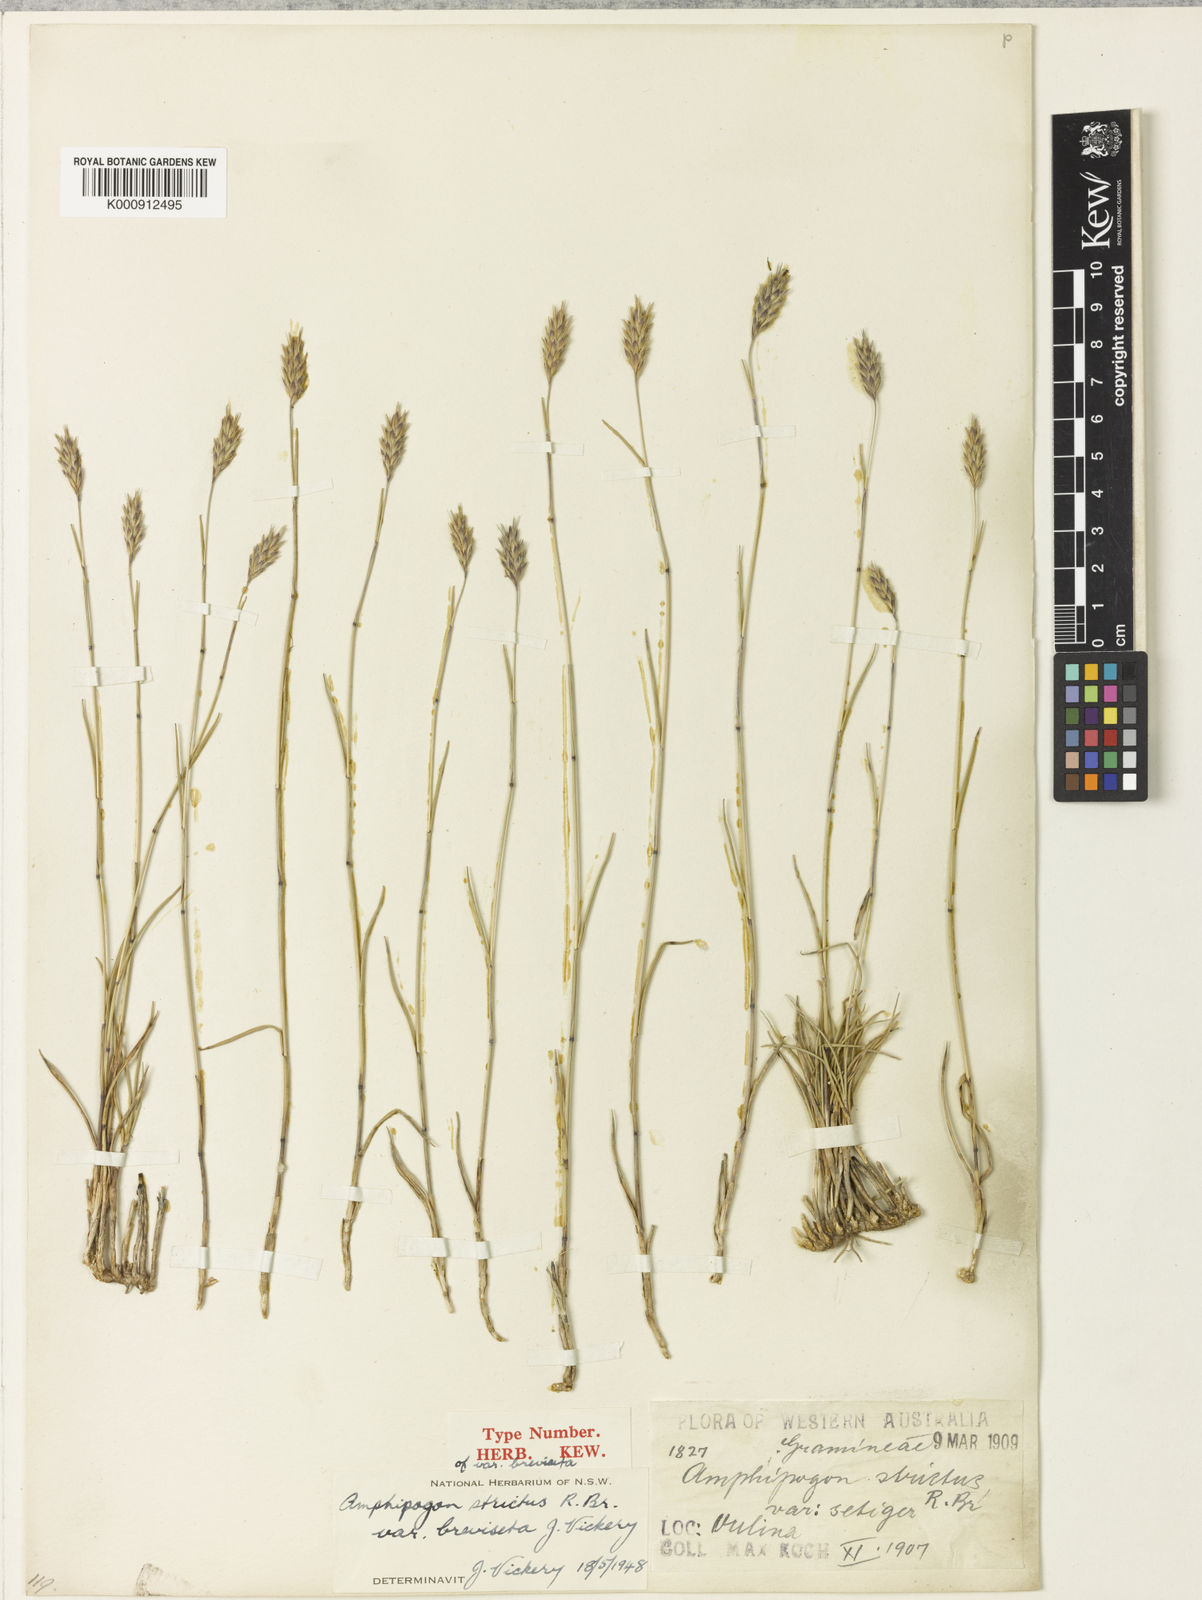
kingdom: Plantae
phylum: Tracheophyta
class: Liliopsida
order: Poales
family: Poaceae
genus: Amphipogon
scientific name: Amphipogon strictus
